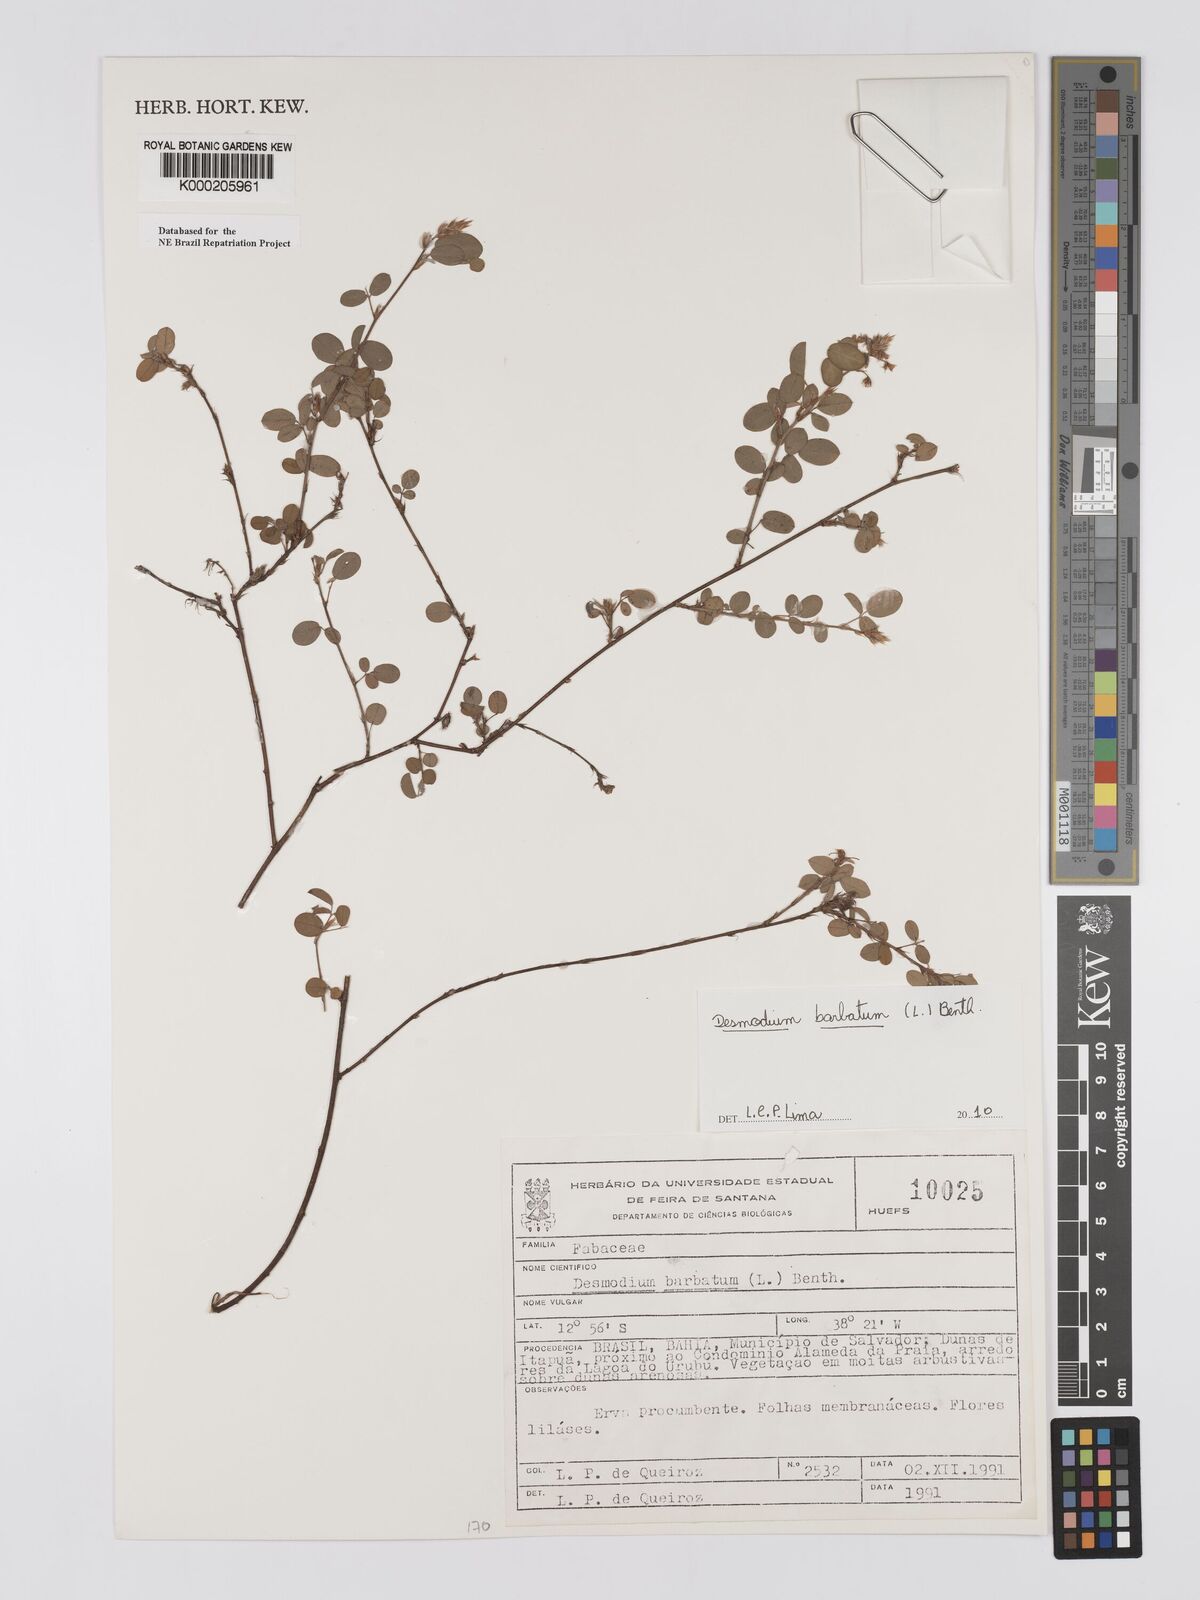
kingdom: Plantae
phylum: Tracheophyta
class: Magnoliopsida
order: Fabales
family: Fabaceae
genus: Grona
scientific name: Grona barbata
